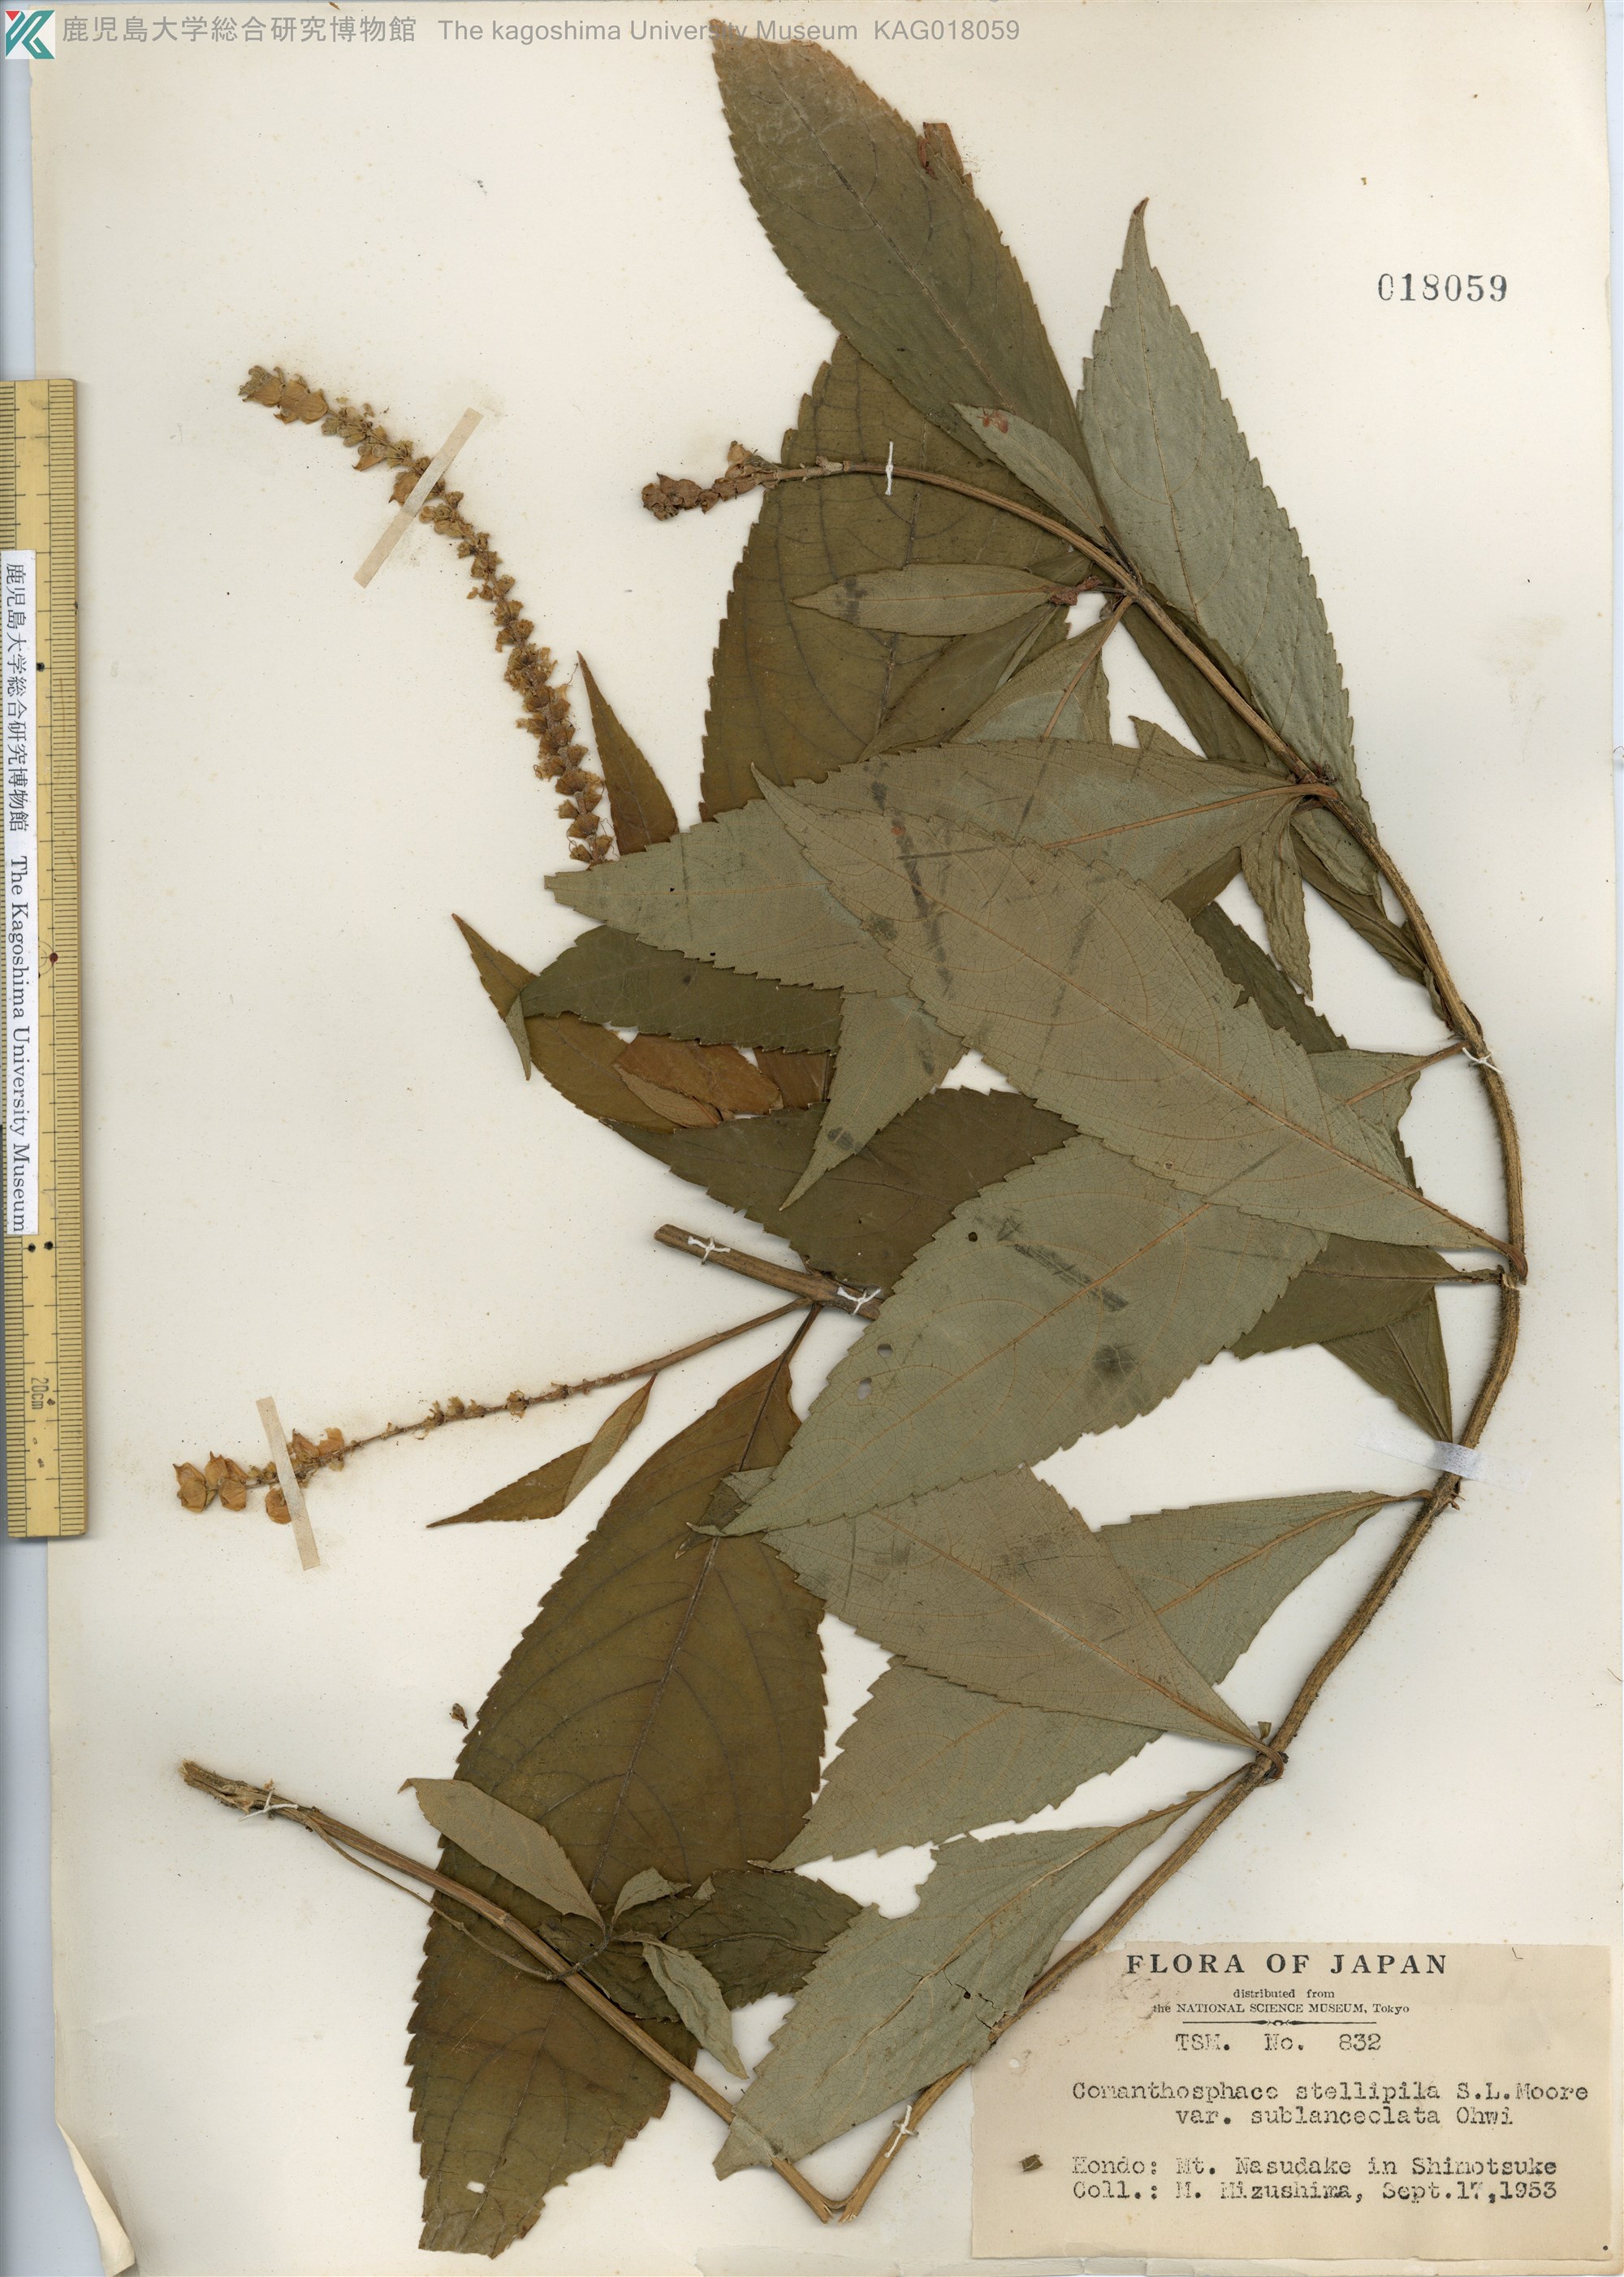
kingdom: Plantae
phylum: Tracheophyta
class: Magnoliopsida
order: Lamiales
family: Lamiaceae
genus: Comanthosphace
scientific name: Comanthosphace japonica
